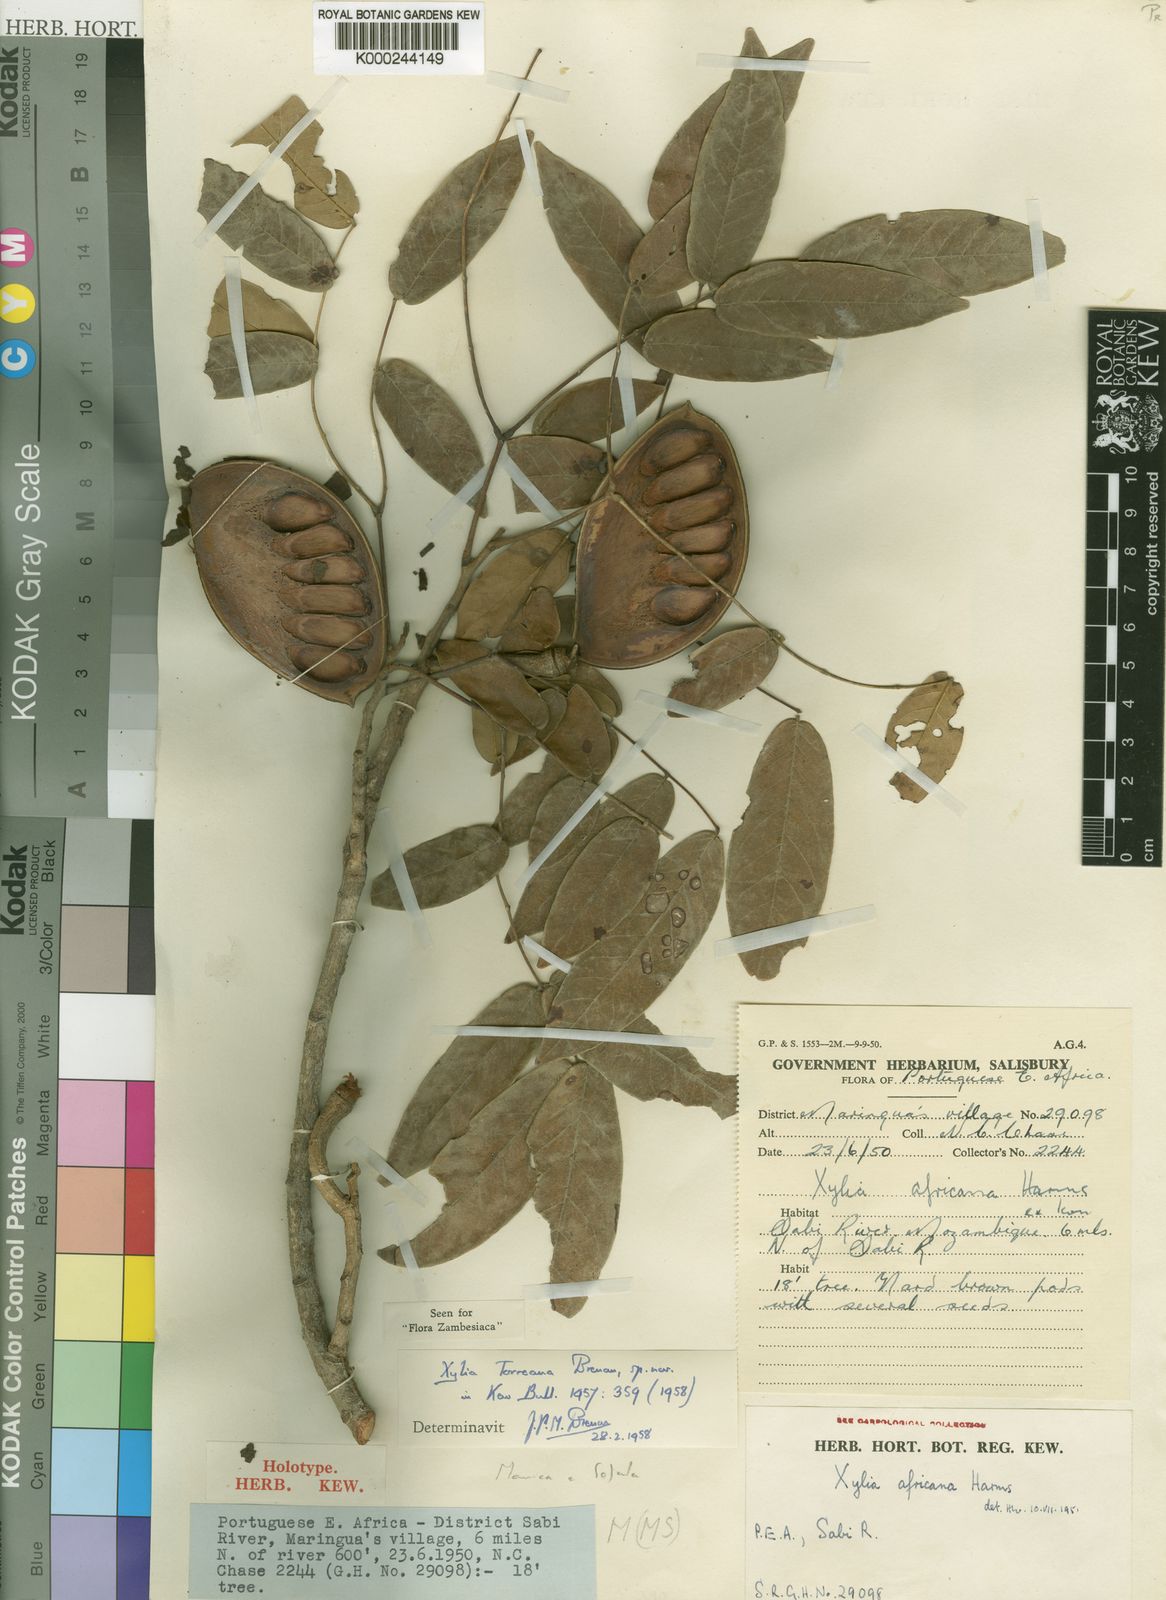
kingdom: Plantae
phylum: Tracheophyta
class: Magnoliopsida
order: Fabales
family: Fabaceae
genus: Xylia
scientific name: Xylia torreana
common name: Hairy sand ash
